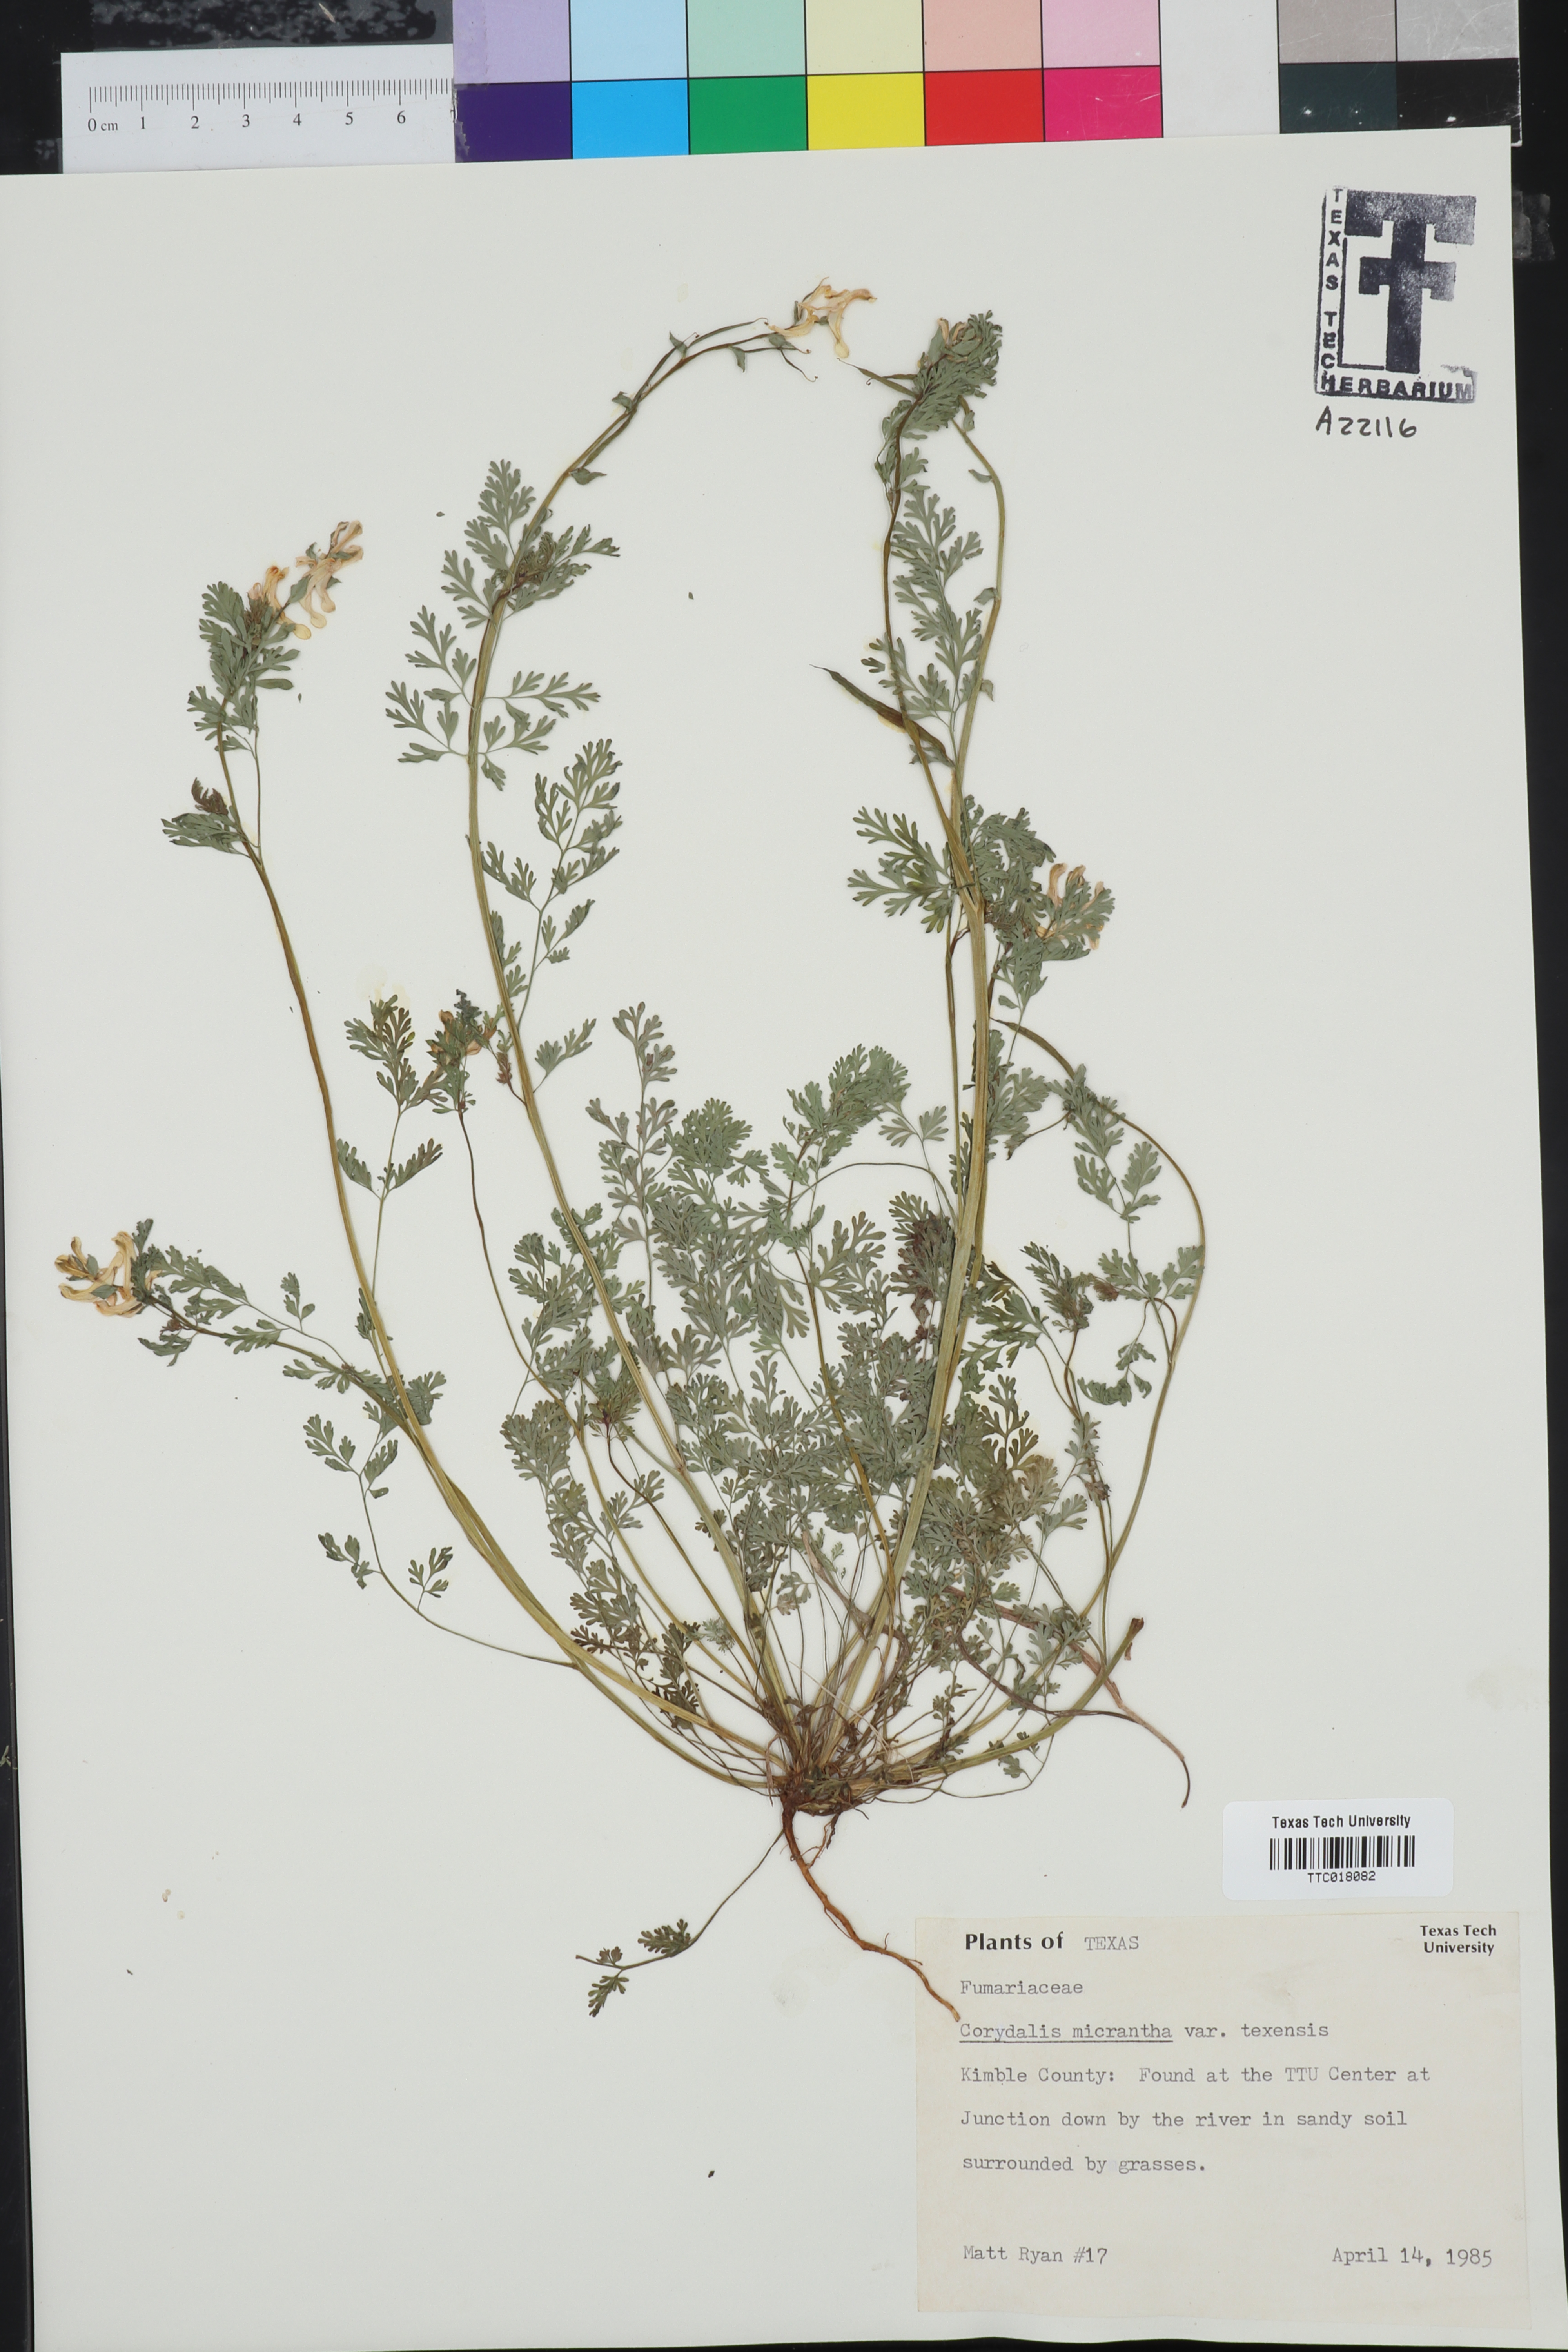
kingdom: Plantae
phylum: Tracheophyta
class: Magnoliopsida
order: Ranunculales
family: Papaveraceae
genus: Corydalis
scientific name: Corydalis micrantha
